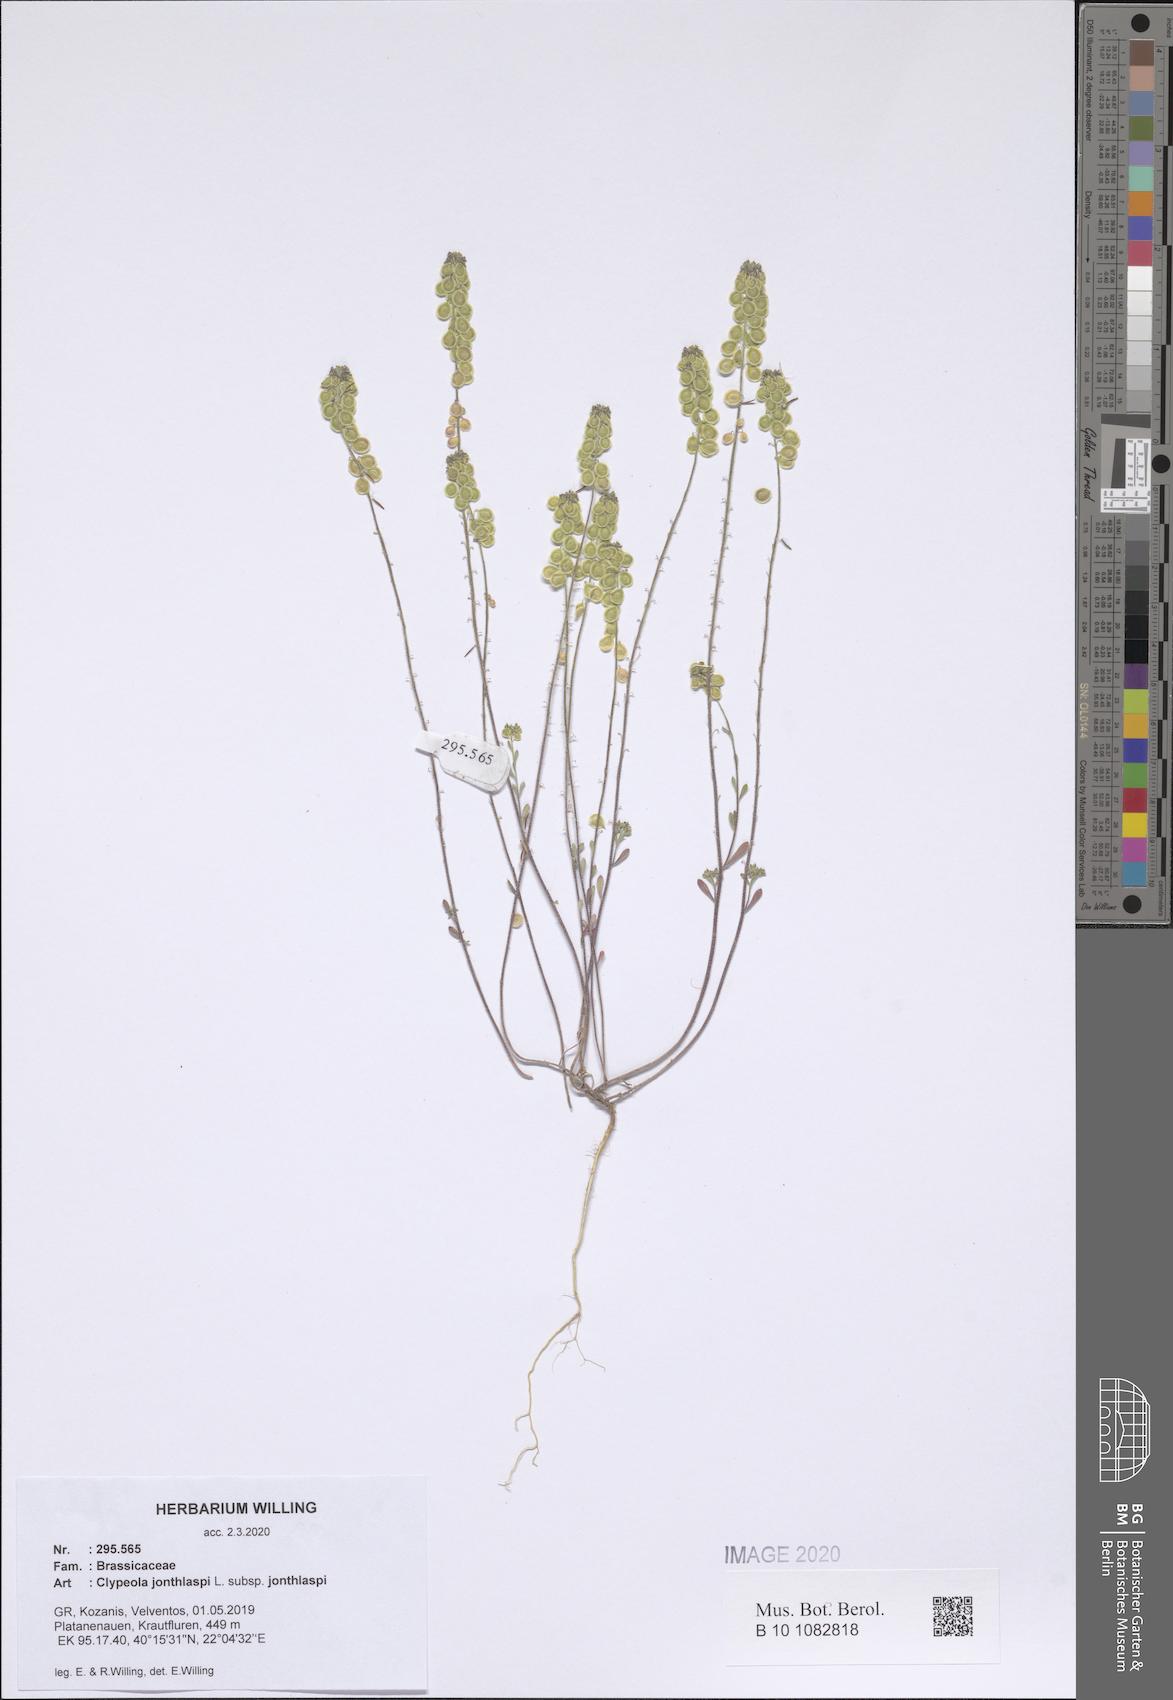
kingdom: Plantae
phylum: Tracheophyta
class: Magnoliopsida
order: Brassicales
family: Brassicaceae
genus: Clypeola
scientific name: Clypeola jonthlaspi
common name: Disk cress
